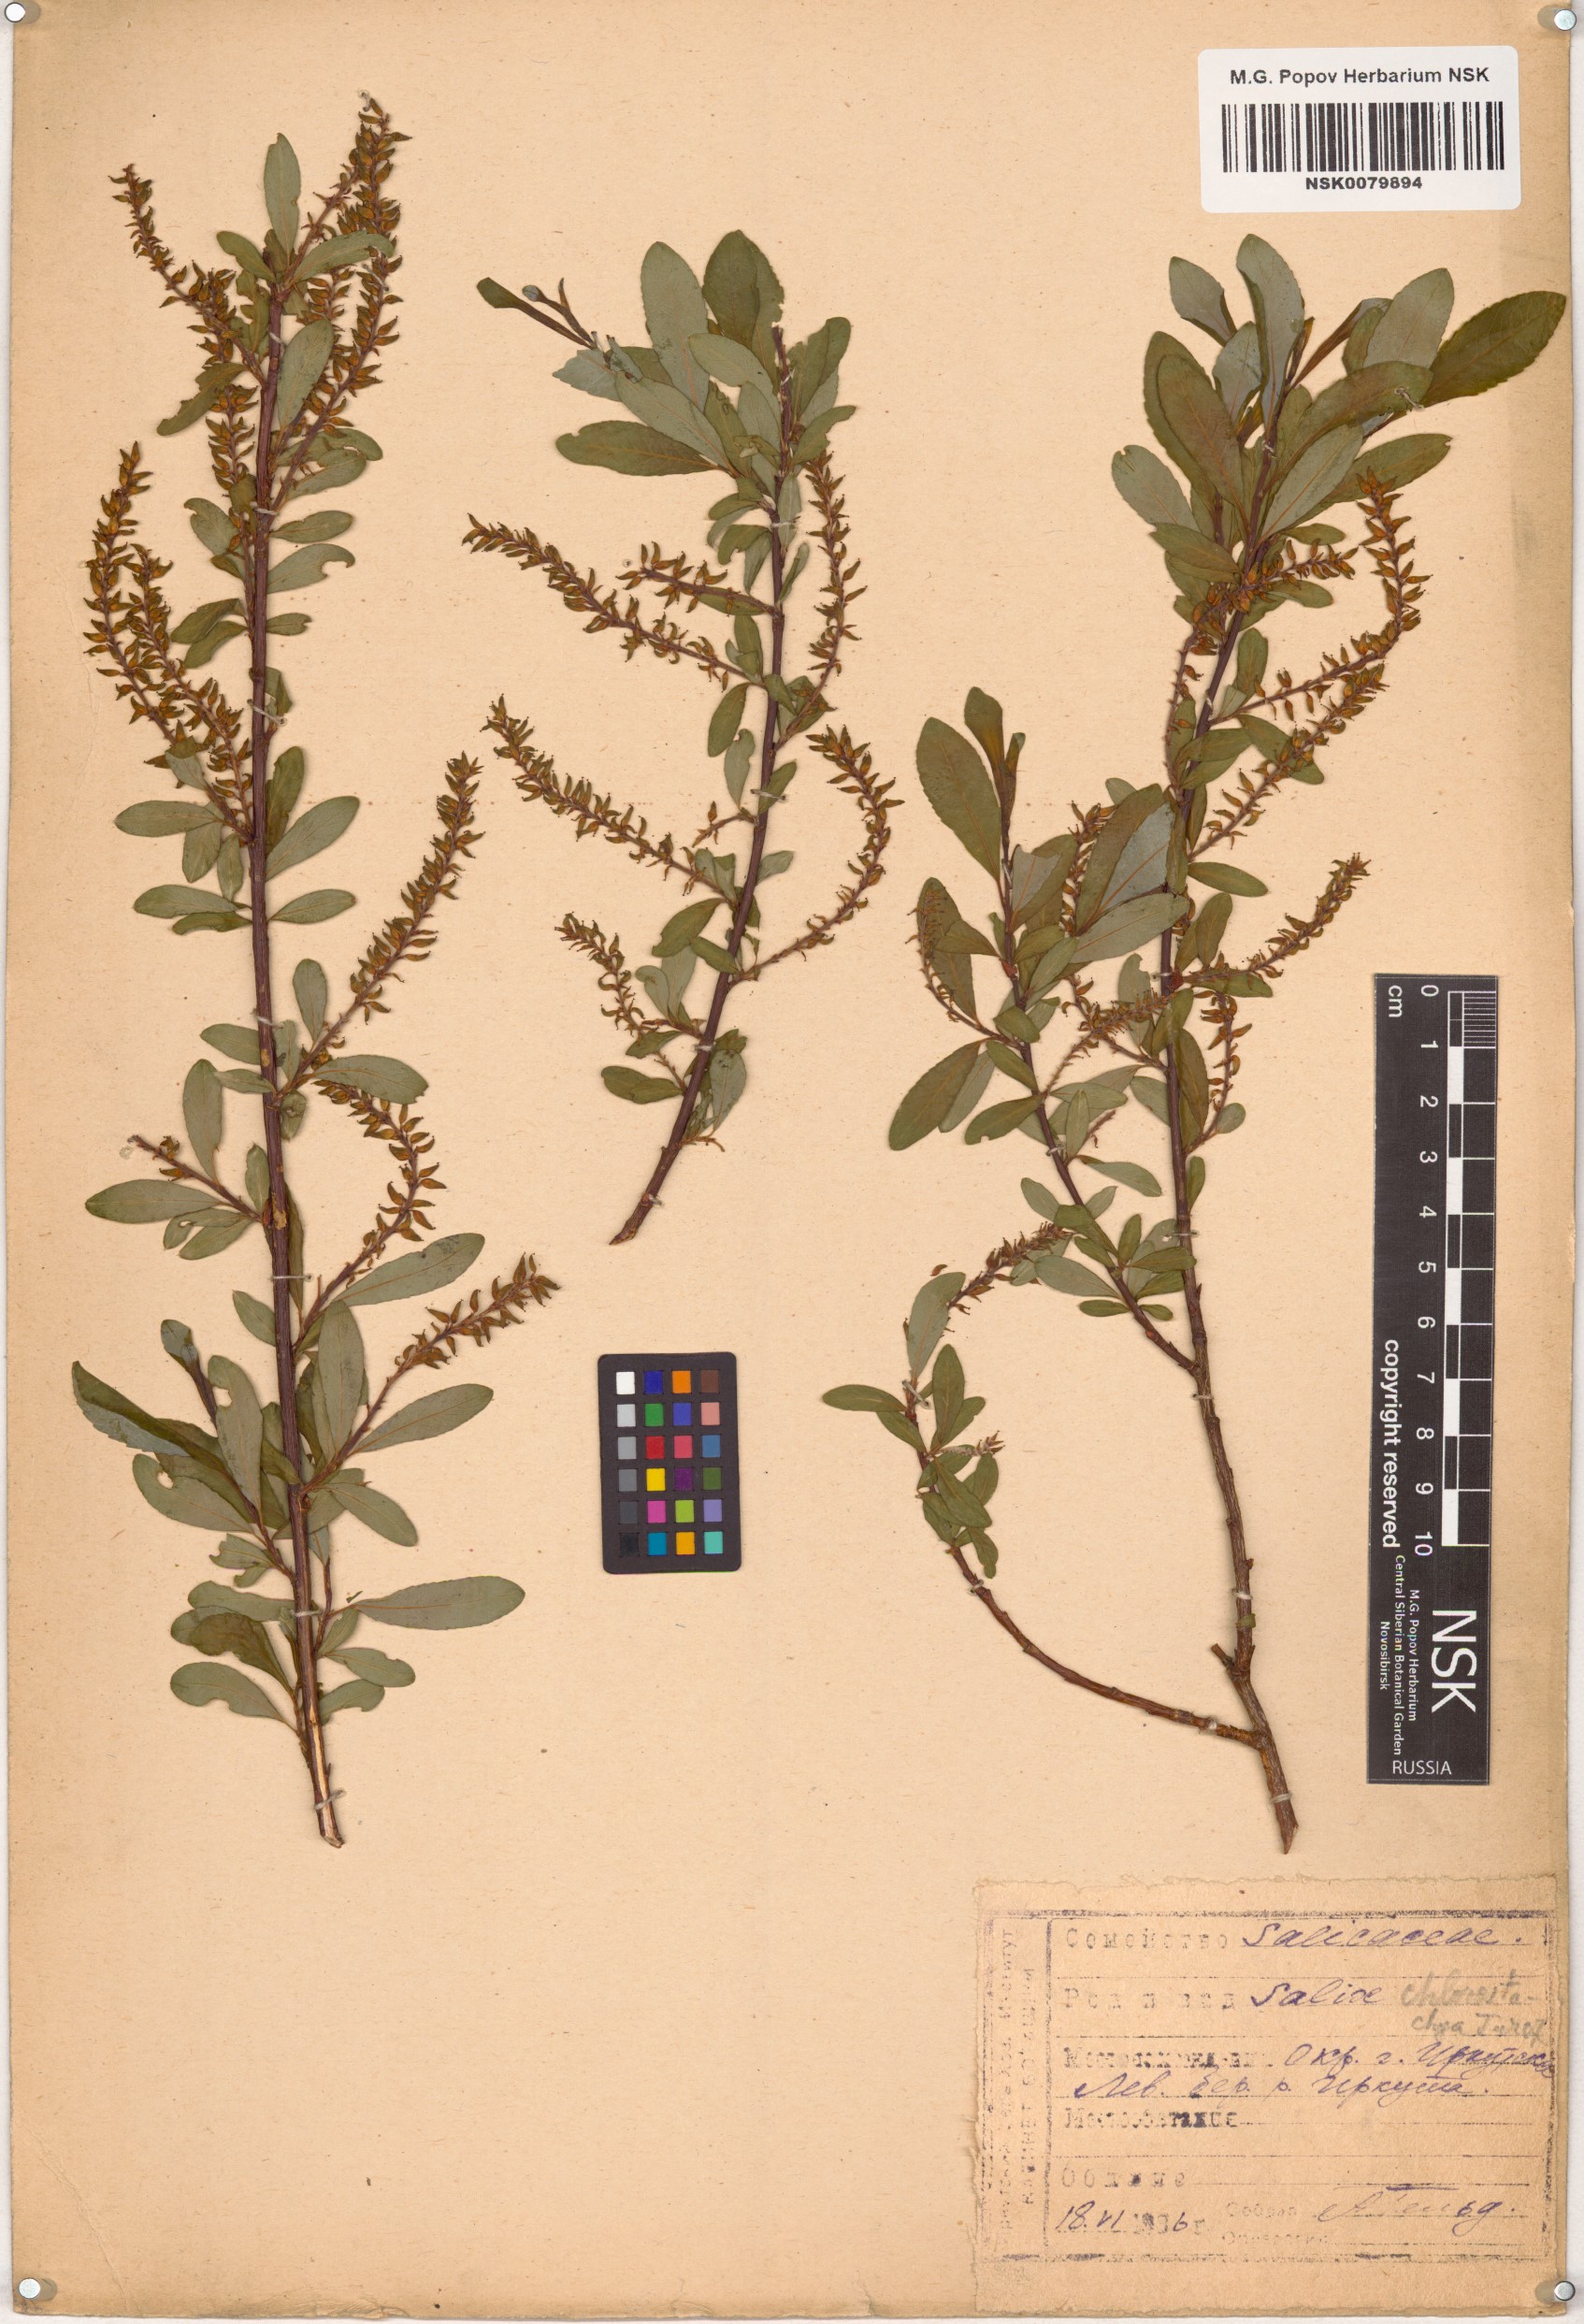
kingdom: Plantae
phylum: Tracheophyta
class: Magnoliopsida
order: Malpighiales
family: Salicaceae
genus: Salix
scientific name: Salix rhamnifolia
